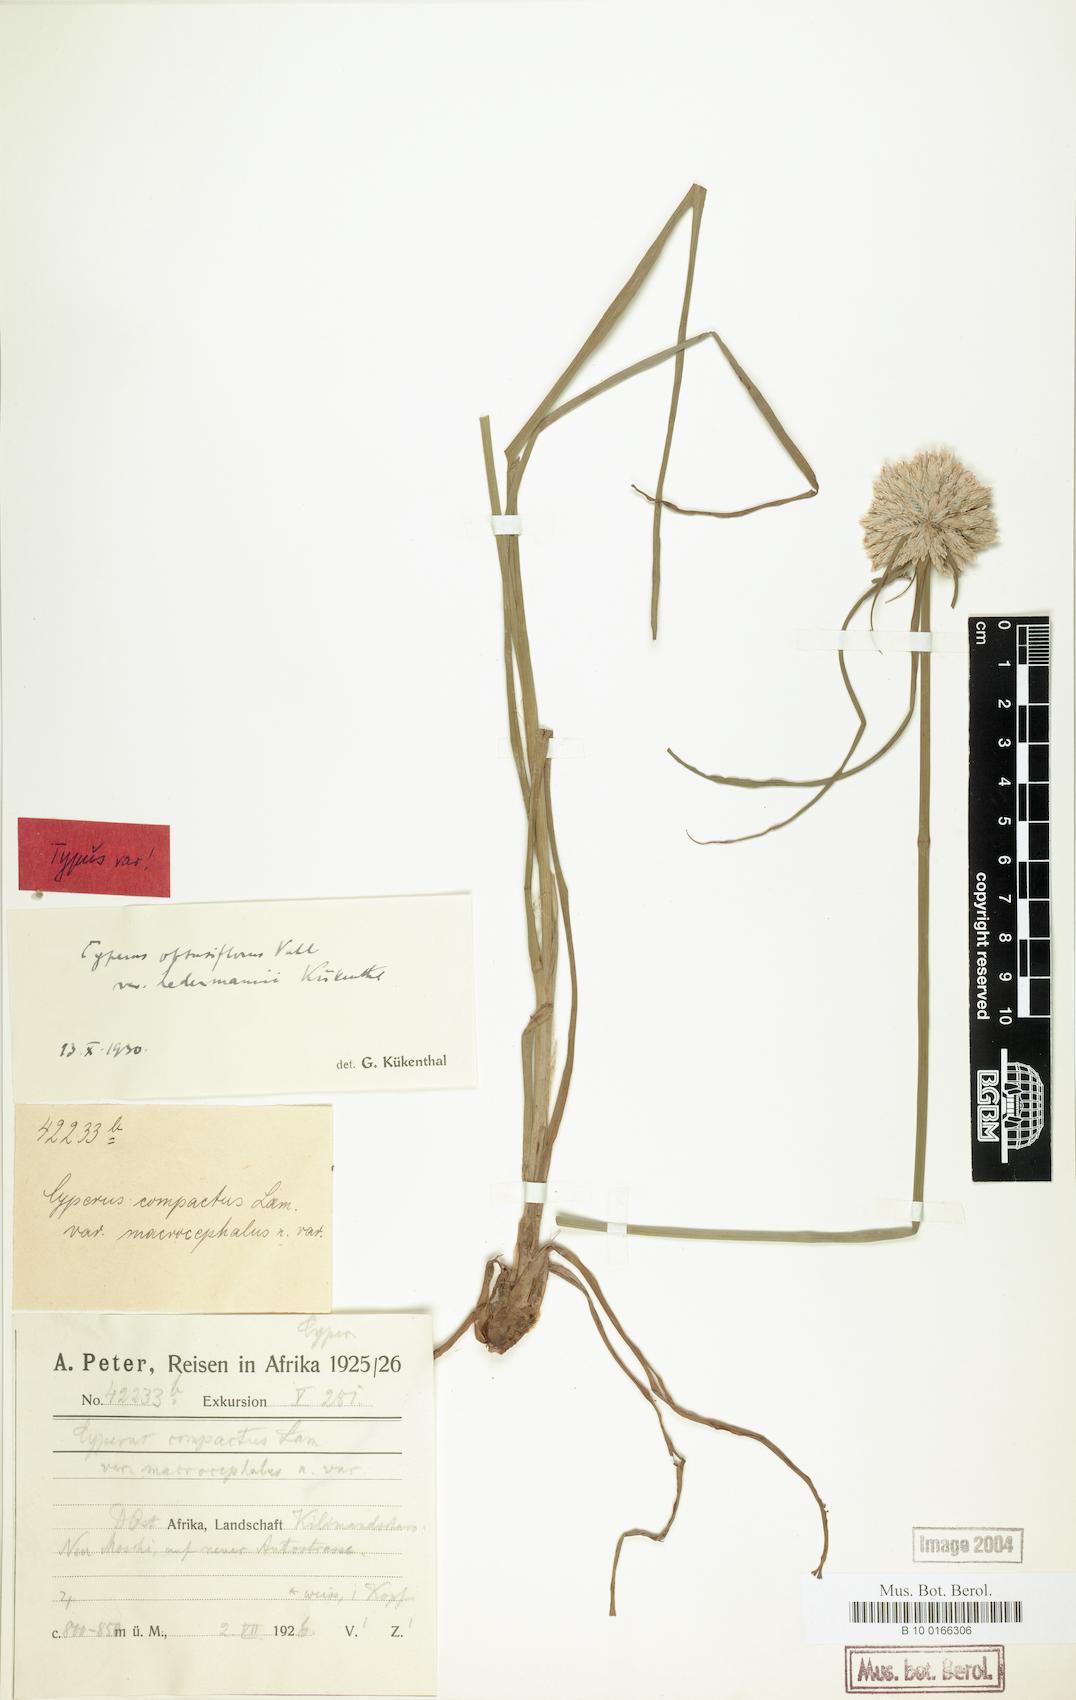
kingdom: Plantae
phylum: Tracheophyta
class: Liliopsida
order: Poales
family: Cyperaceae
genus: Cyperus
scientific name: Cyperus niveus
